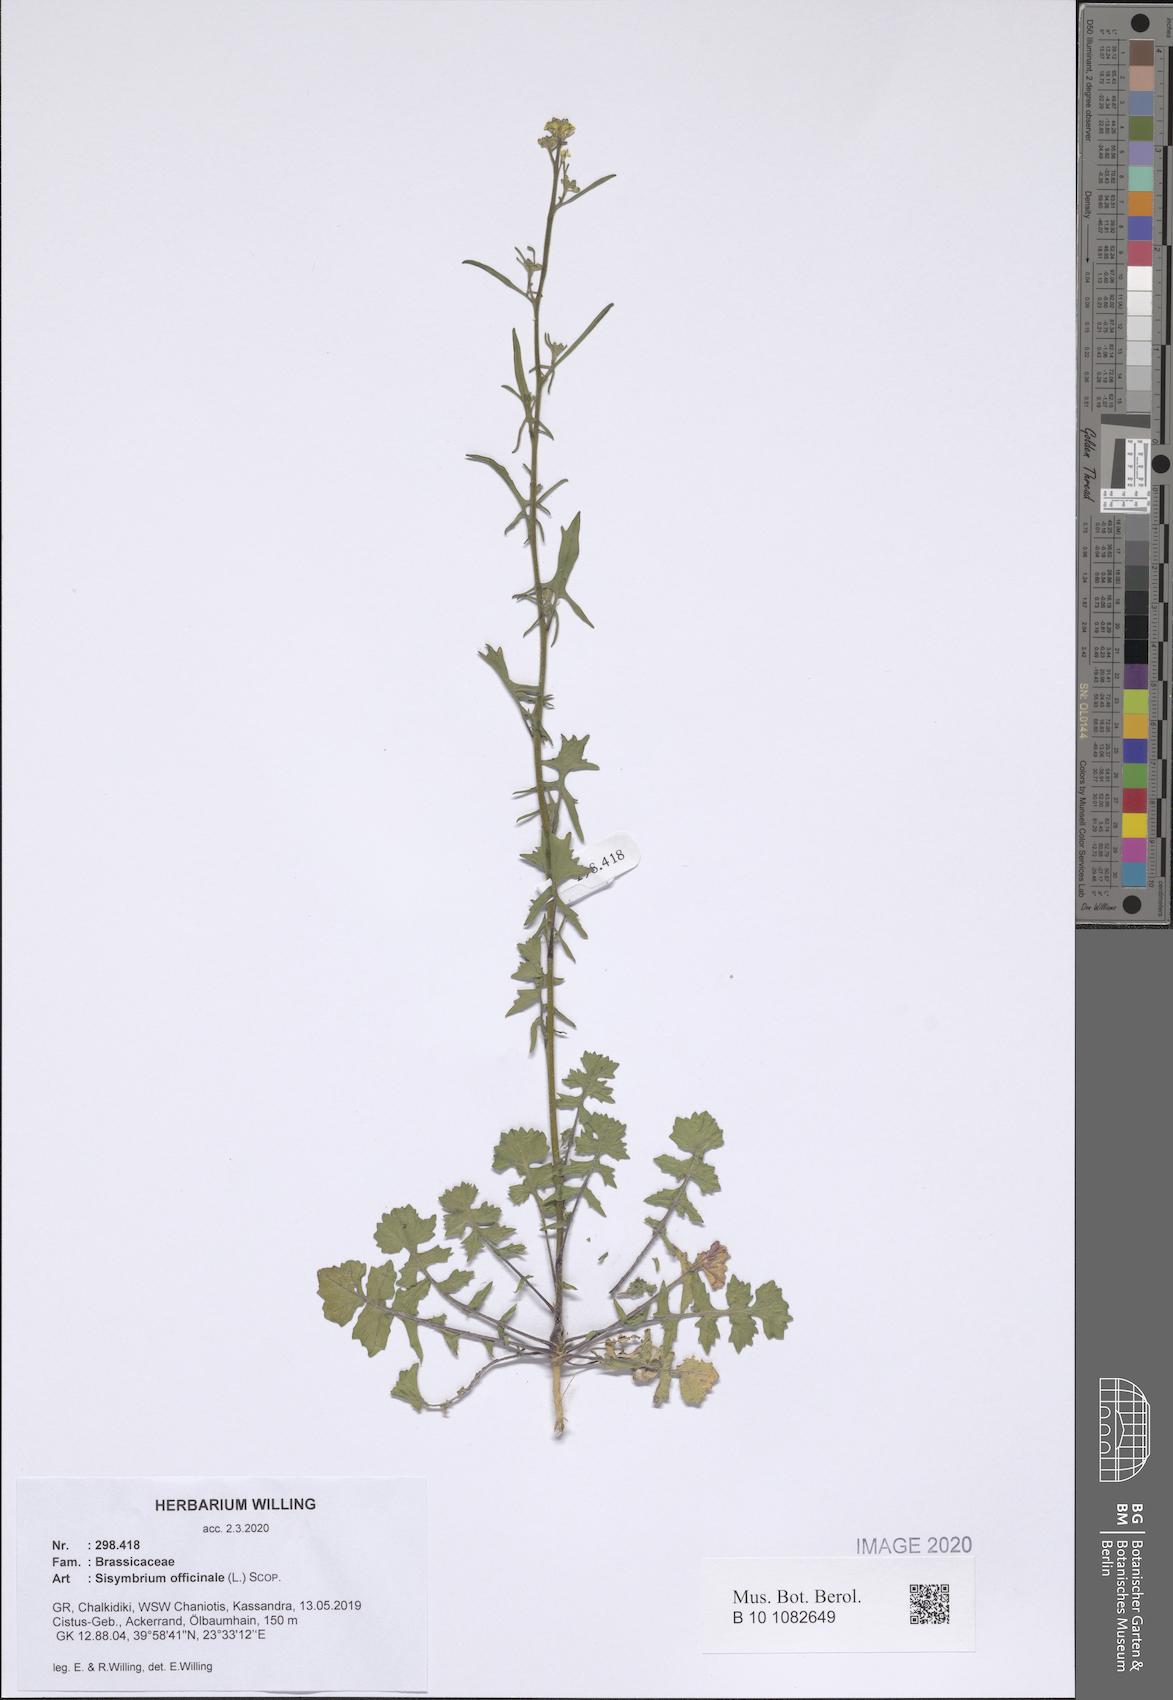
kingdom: Plantae
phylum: Tracheophyta
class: Magnoliopsida
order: Brassicales
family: Brassicaceae
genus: Sisymbrium
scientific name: Sisymbrium officinale
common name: Hedge mustard
